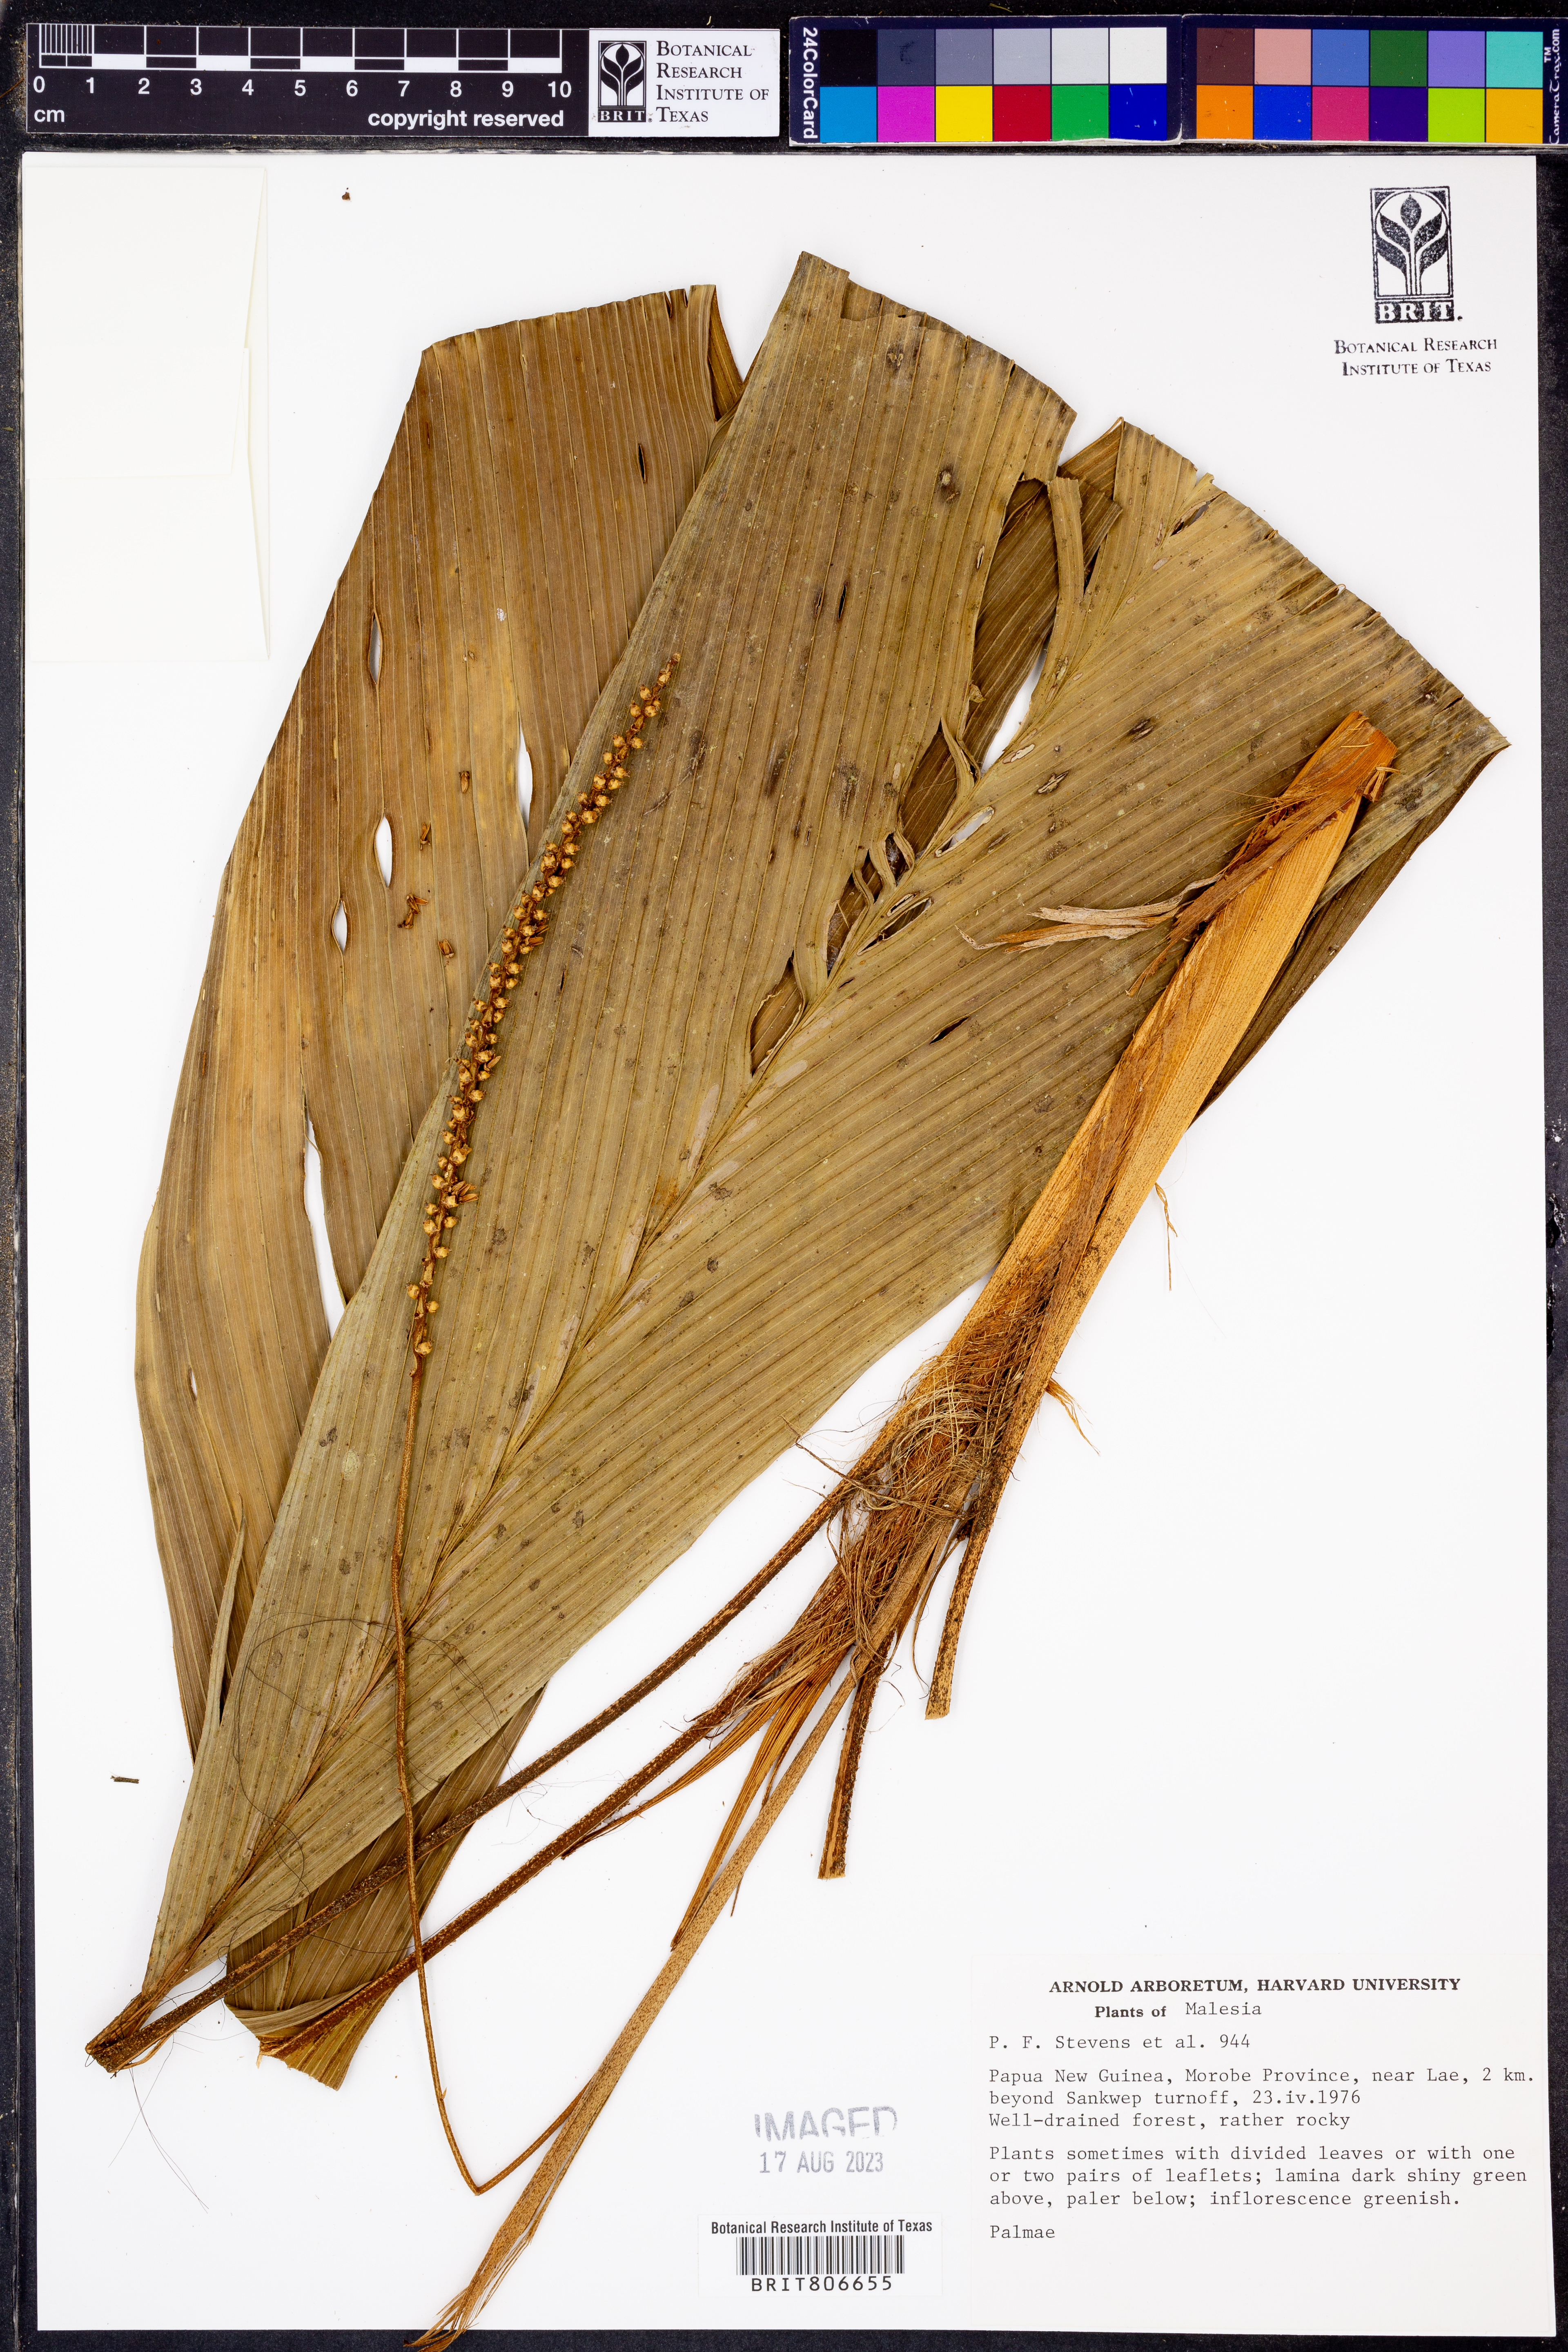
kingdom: Plantae
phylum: Tracheophyta
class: Liliopsida
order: Arecales
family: Arecaceae
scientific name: Arecaceae
